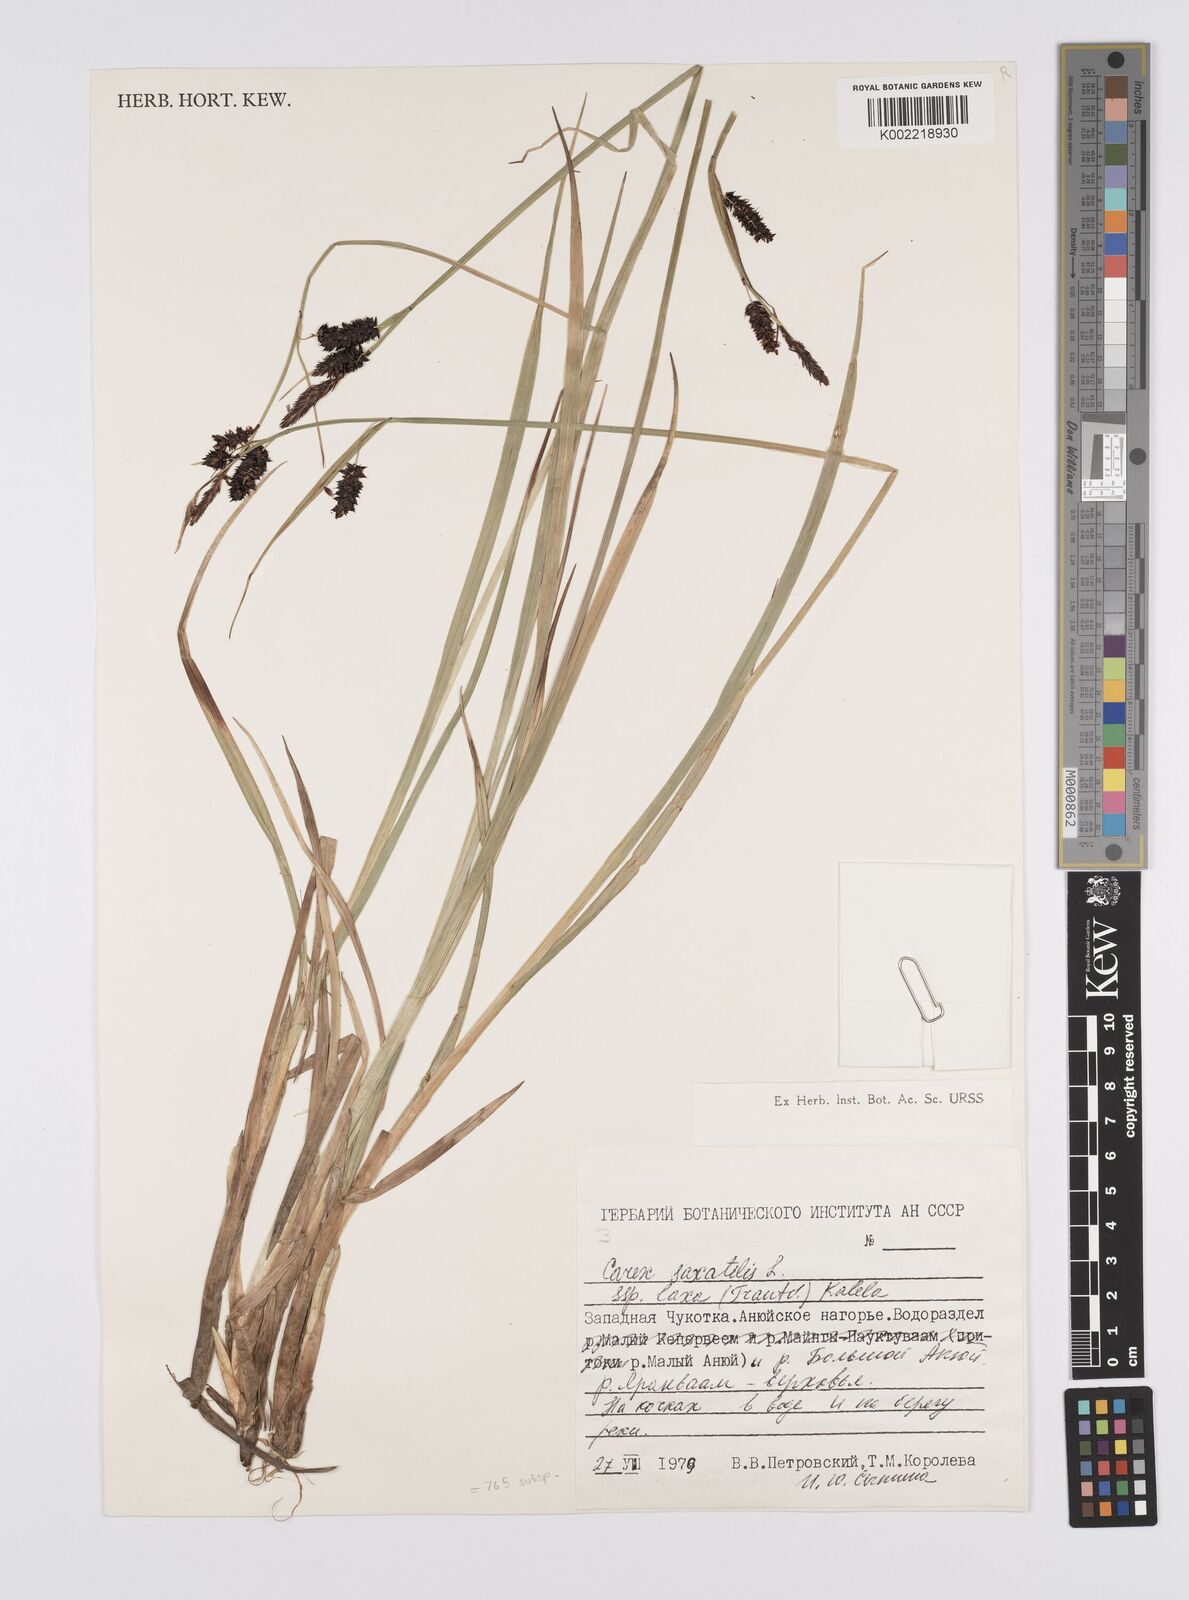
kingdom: Plantae
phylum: Tracheophyta
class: Liliopsida
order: Poales
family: Cyperaceae
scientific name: Cyperaceae
